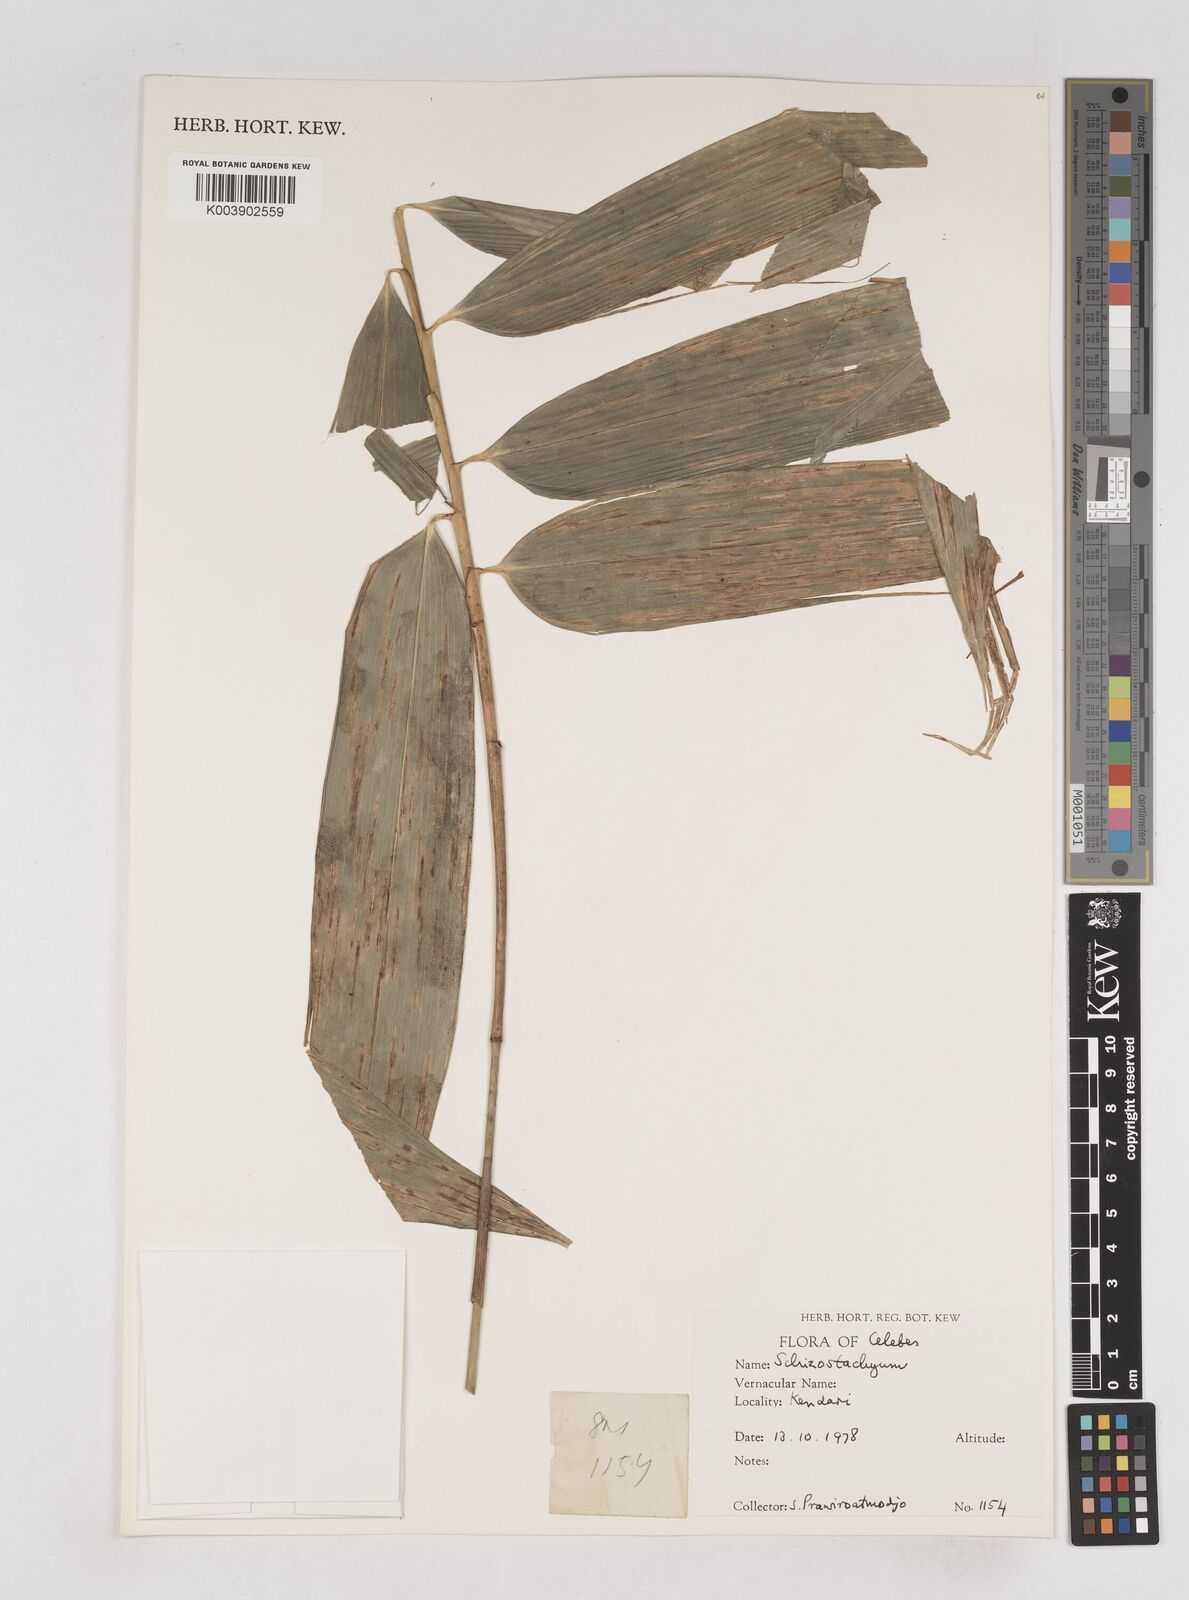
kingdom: Plantae
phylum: Tracheophyta
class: Liliopsida
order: Poales
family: Poaceae
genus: Schizostachyum
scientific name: Schizostachyum
